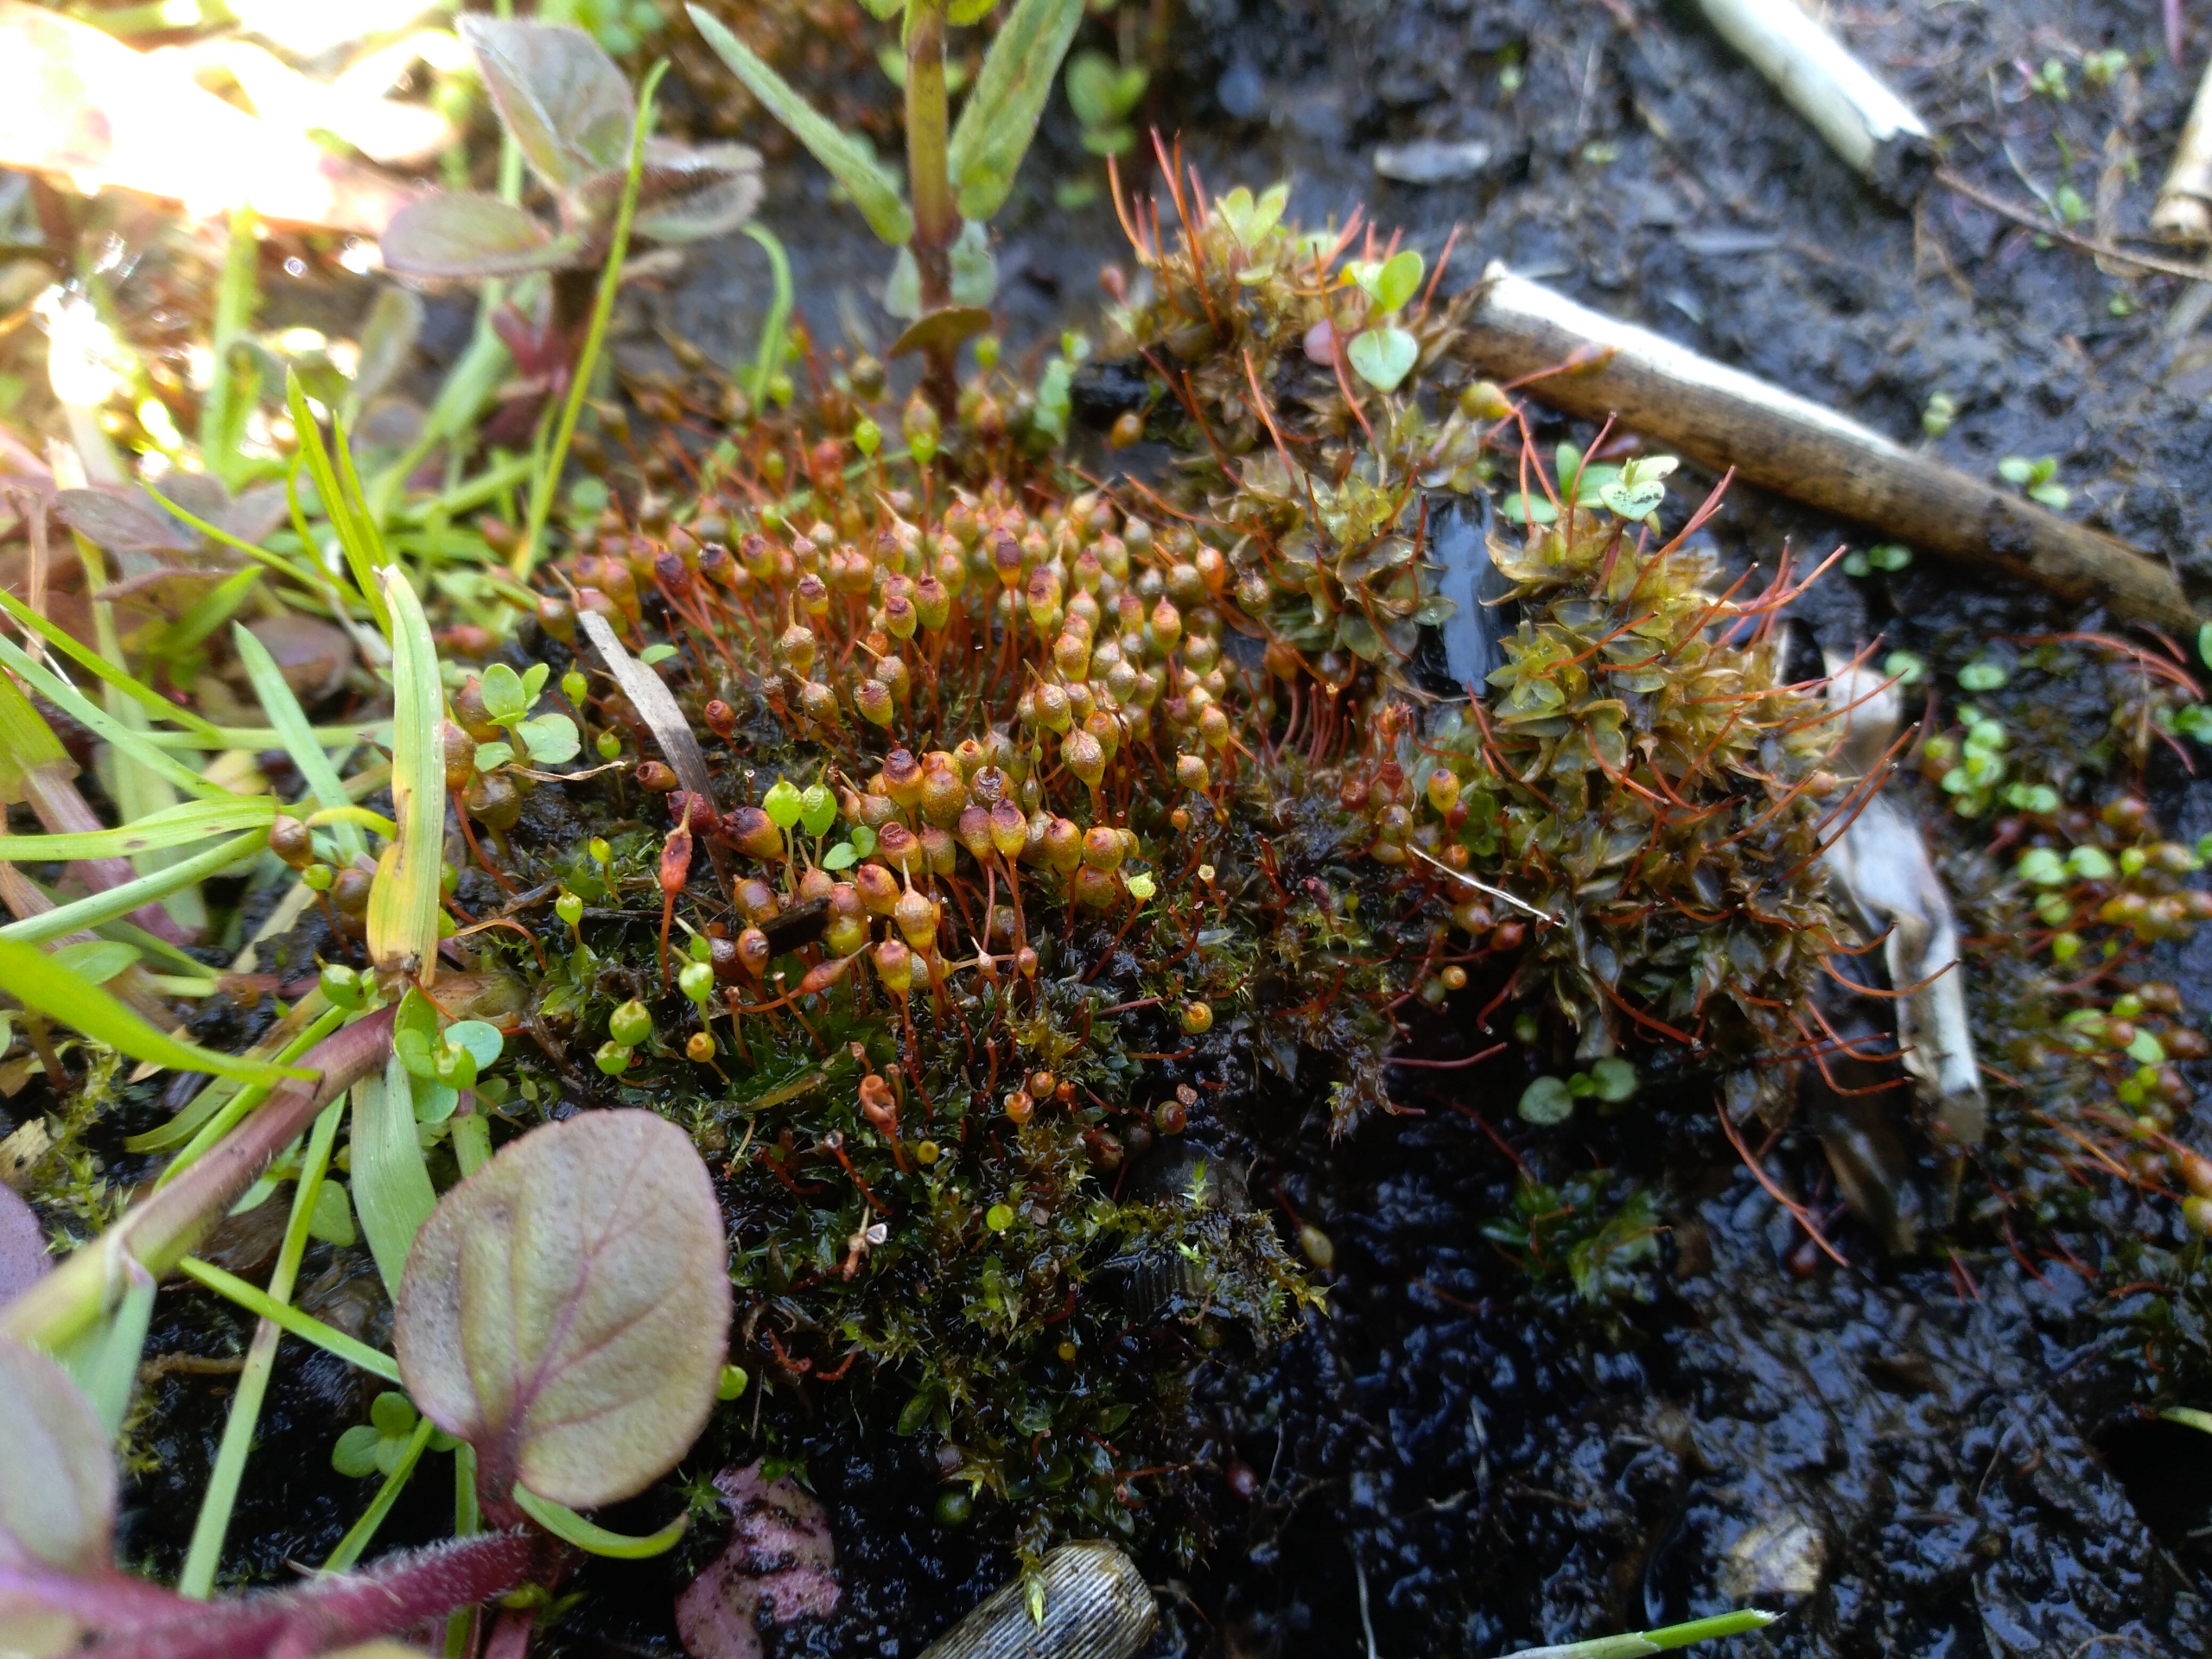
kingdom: Plantae
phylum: Bryophyta
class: Bryopsida
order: Funariales
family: Funariaceae
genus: Physcomitrium
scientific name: Physcomitrium pyriforme
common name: Almindelig pærekapsel
